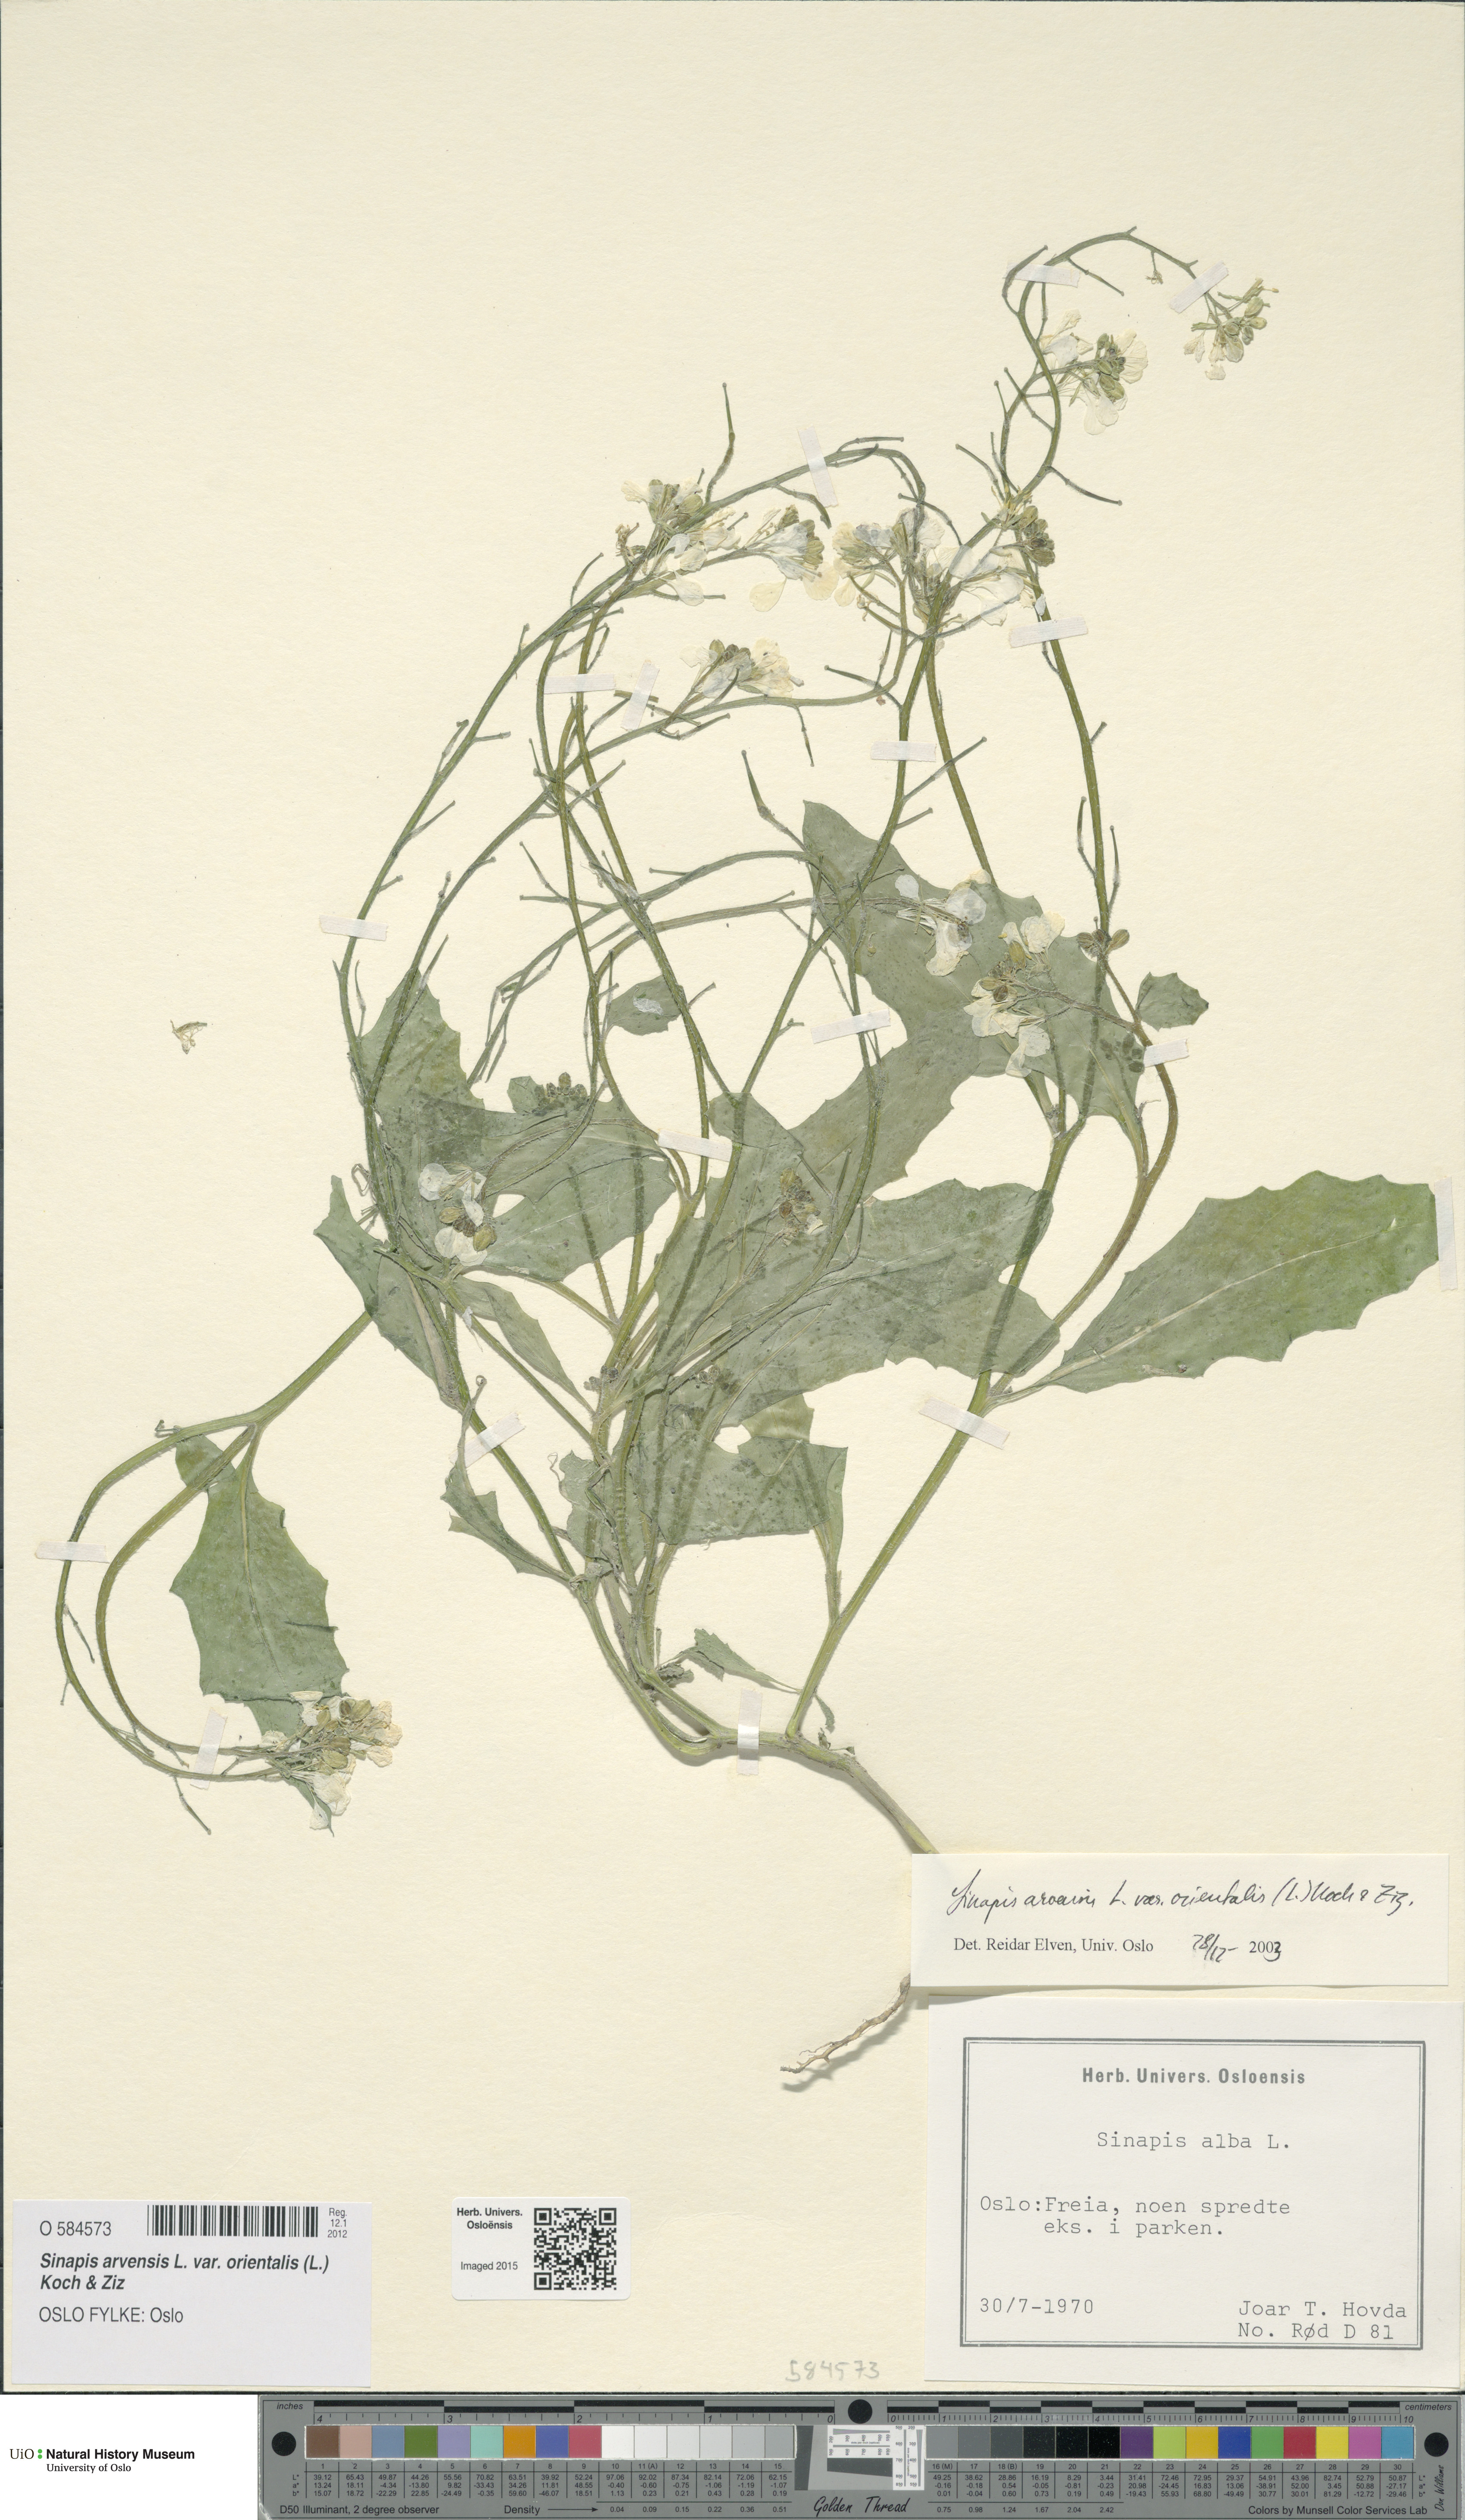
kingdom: Plantae
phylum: Tracheophyta
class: Magnoliopsida
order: Brassicales
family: Brassicaceae
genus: Sinapis
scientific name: Sinapis arvensis
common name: Charlock
